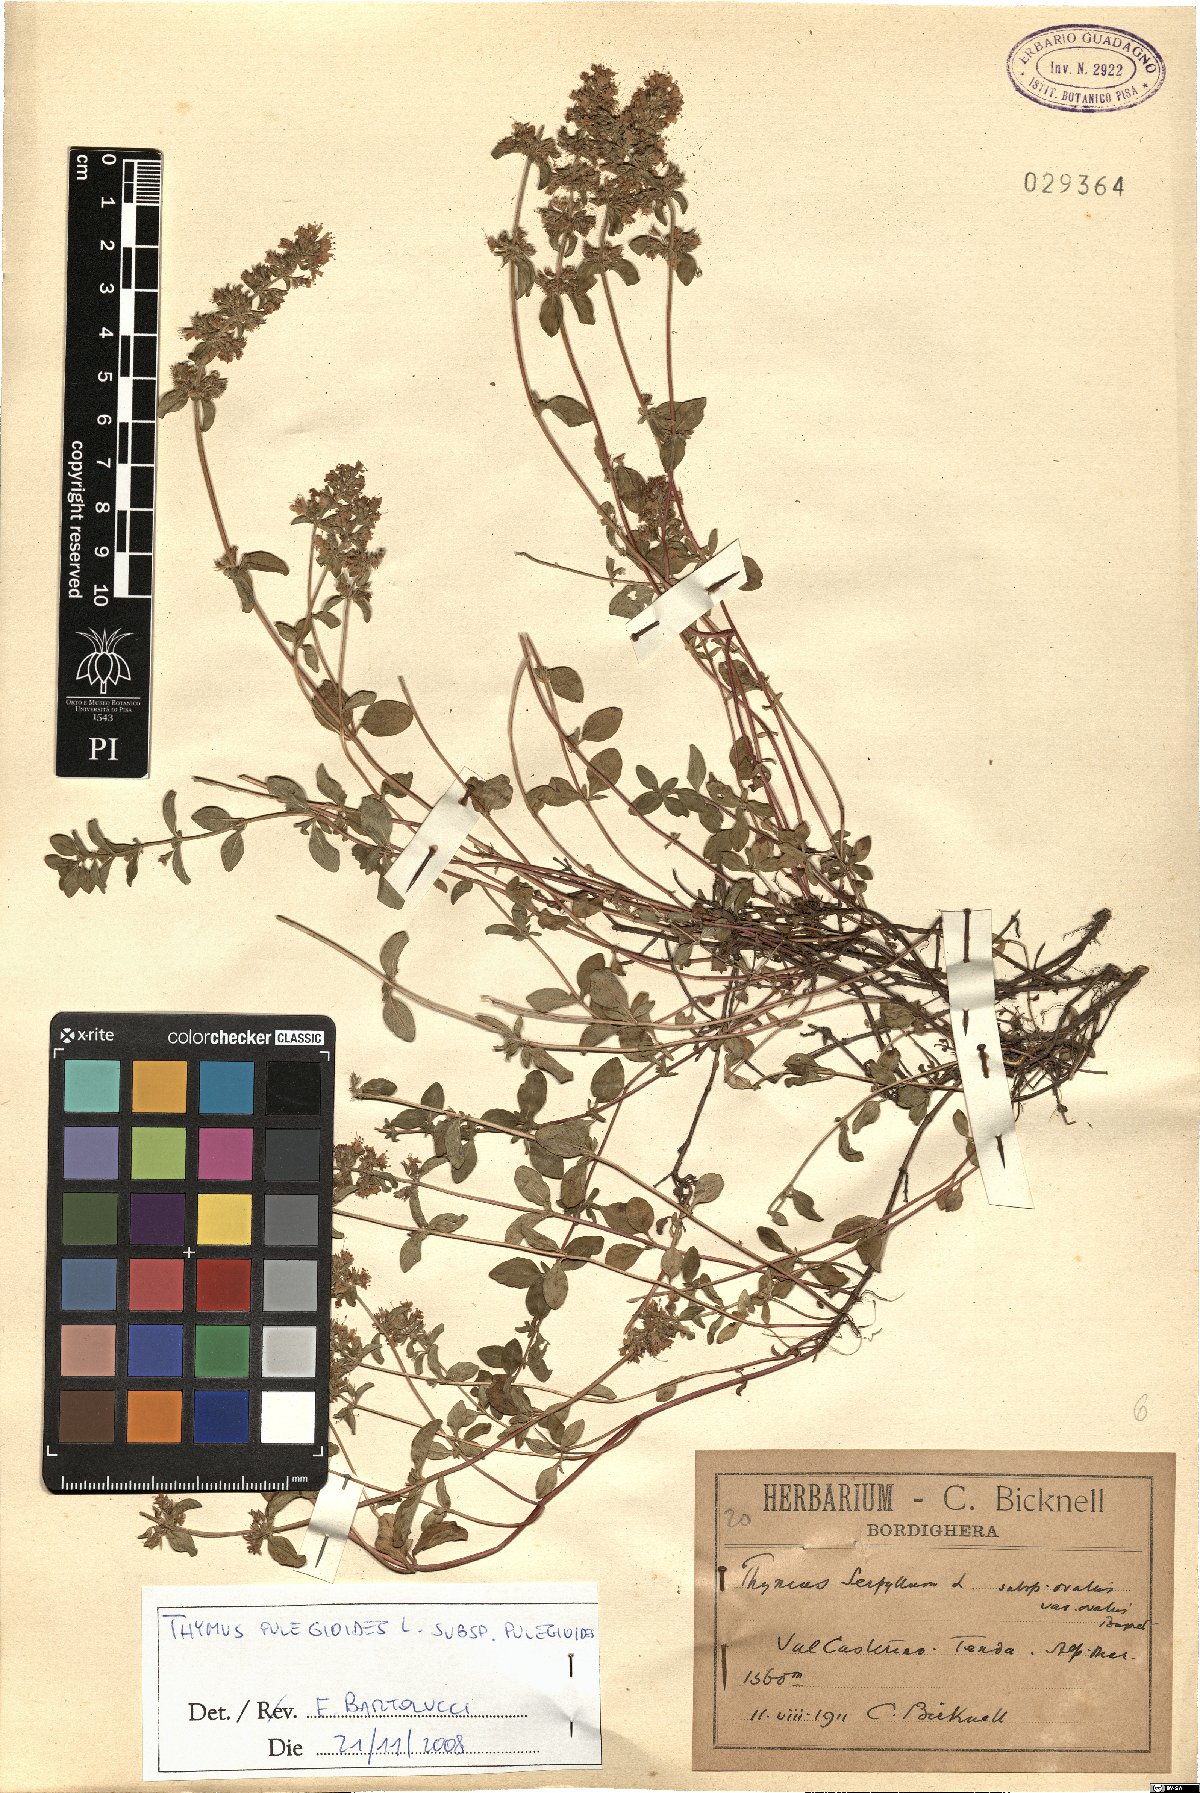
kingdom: Plantae
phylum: Tracheophyta
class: Magnoliopsida
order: Lamiales
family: Lamiaceae
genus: Thymus
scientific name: Thymus pulegioides
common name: Large thyme
